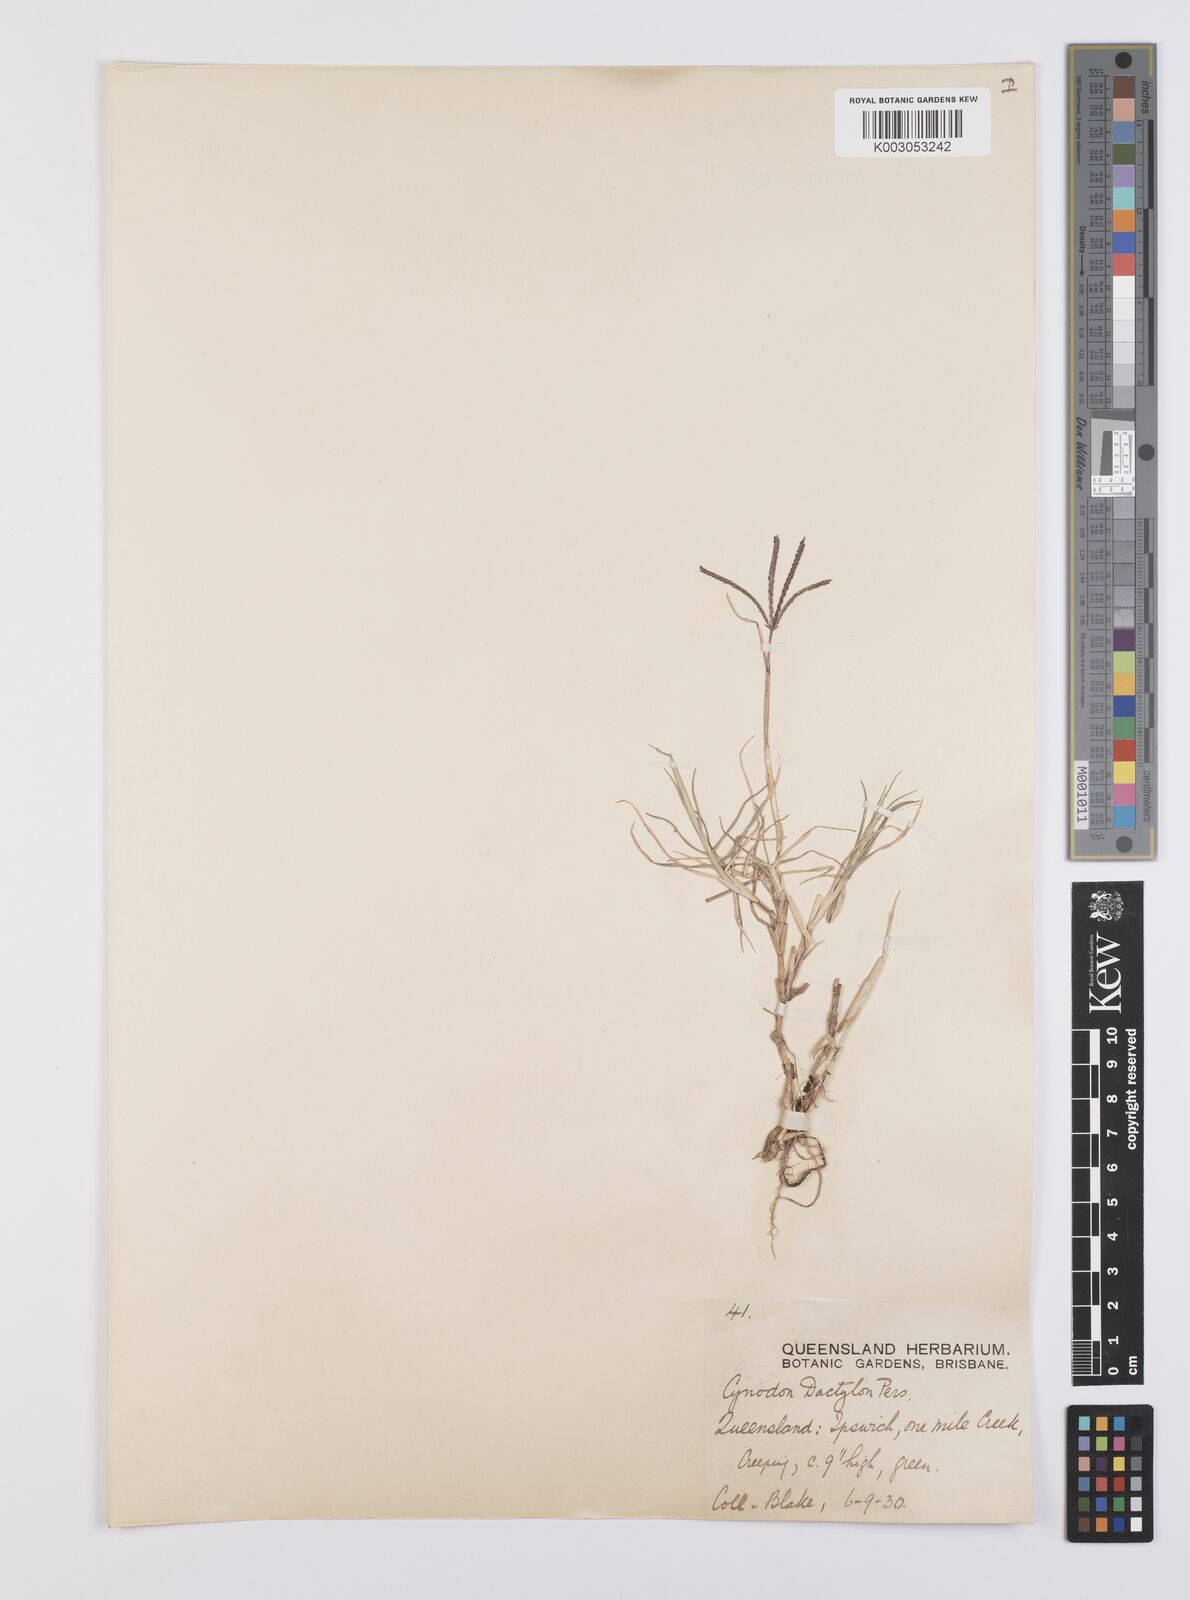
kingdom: Plantae
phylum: Tracheophyta
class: Liliopsida
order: Poales
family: Poaceae
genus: Cynodon
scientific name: Cynodon dactylon
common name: Bermuda grass
